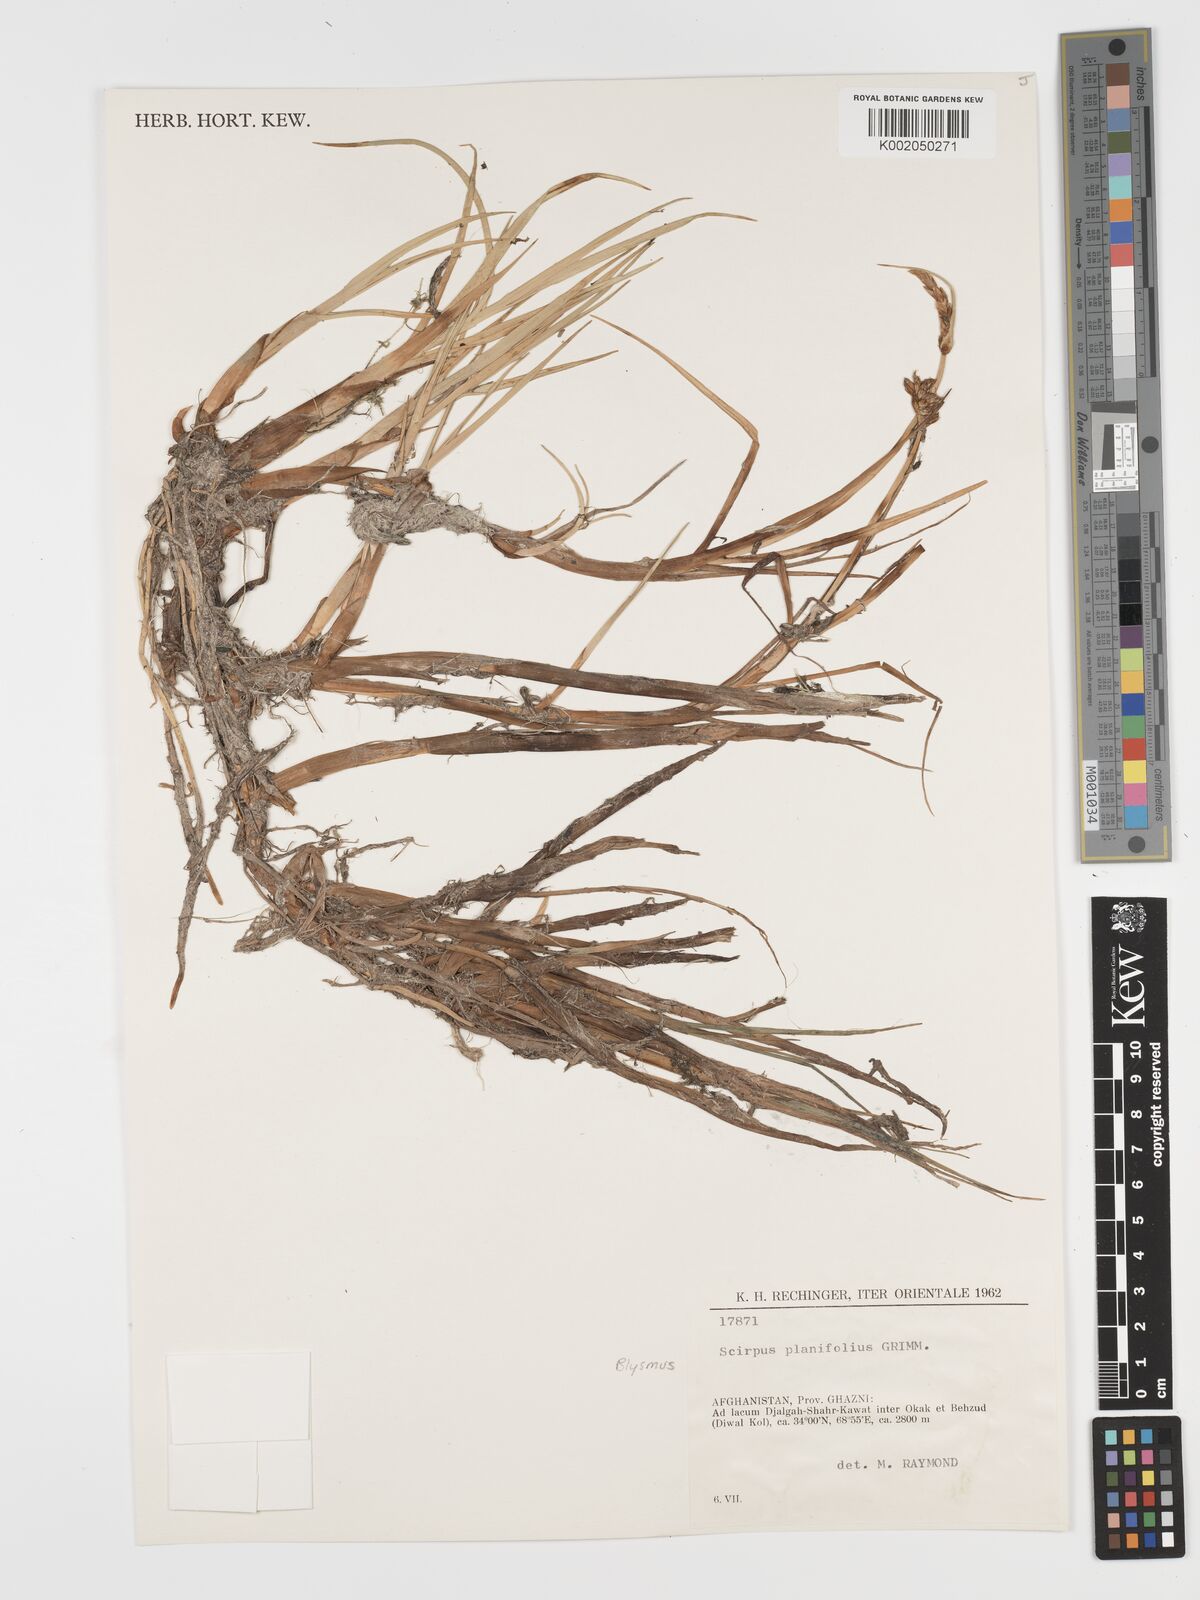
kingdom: Plantae
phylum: Tracheophyta
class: Liliopsida
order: Poales
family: Cyperaceae
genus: Blysmus
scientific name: Blysmus compressus
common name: Flat-sedge
